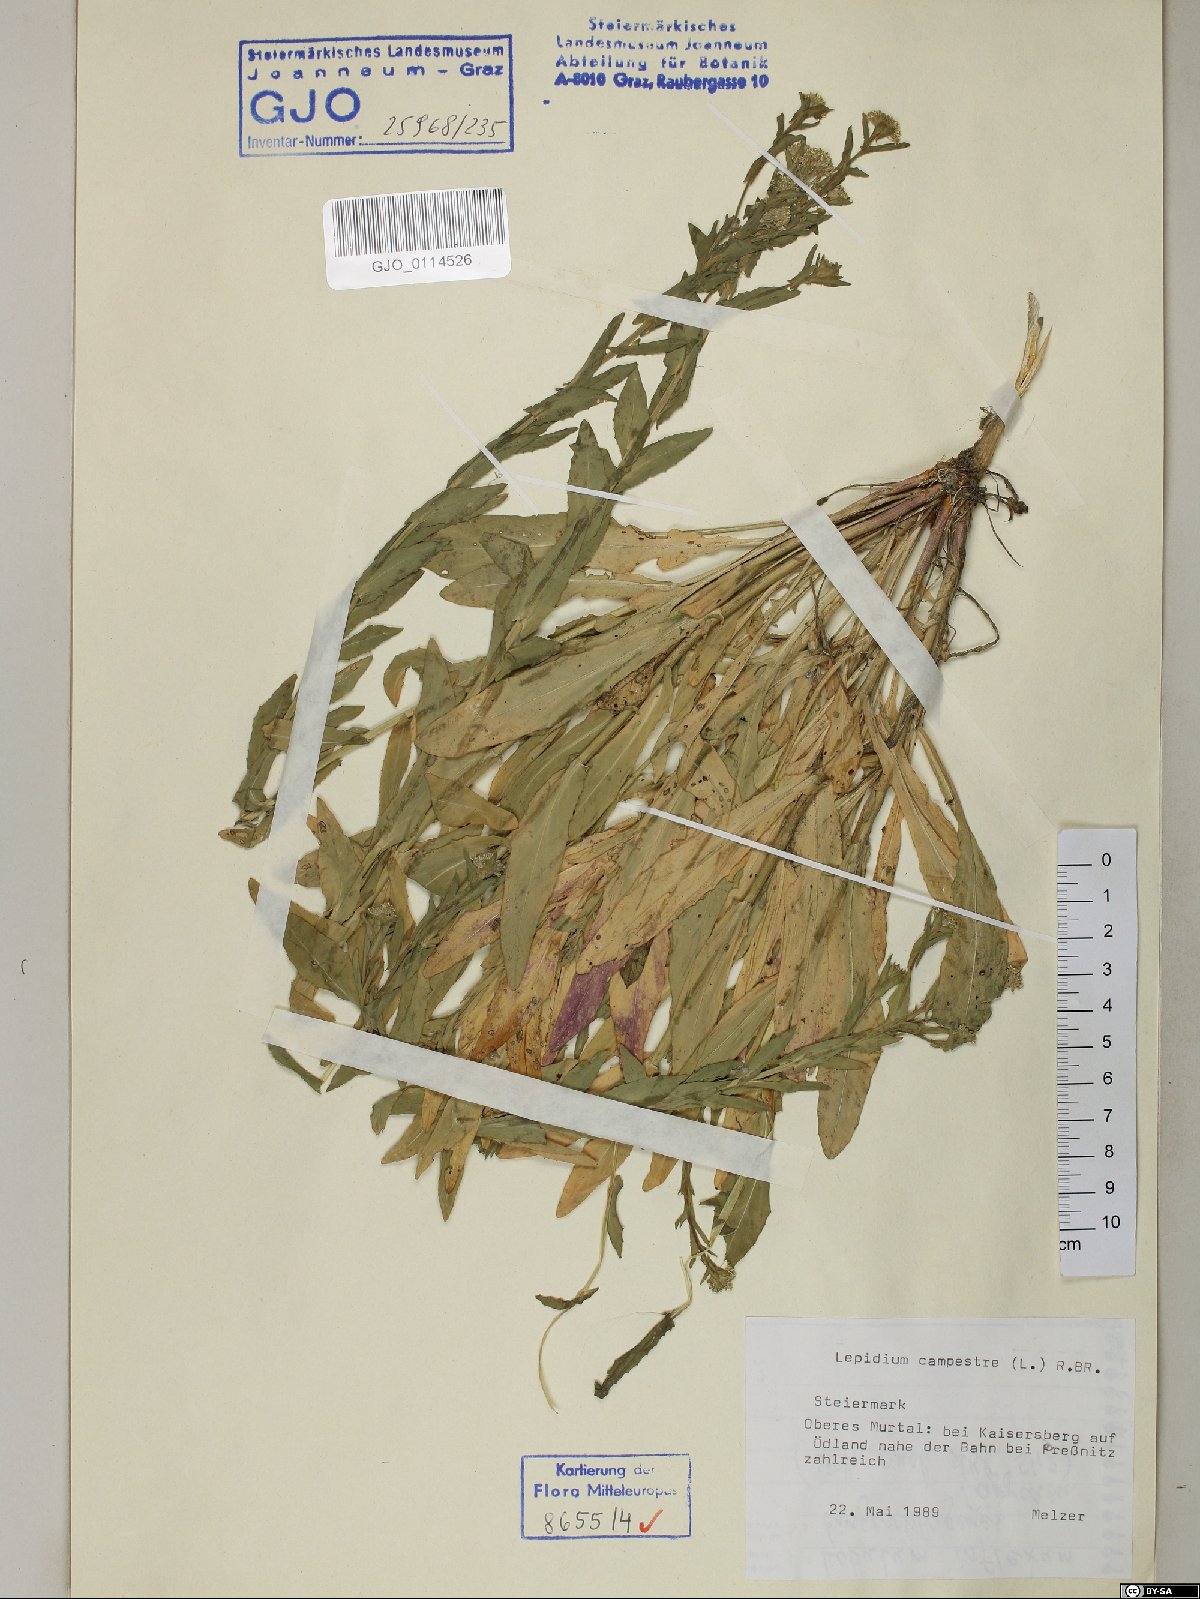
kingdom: Plantae
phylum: Tracheophyta
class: Magnoliopsida
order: Brassicales
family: Brassicaceae
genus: Lepidium
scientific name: Lepidium campestre
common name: Field pepperwort
